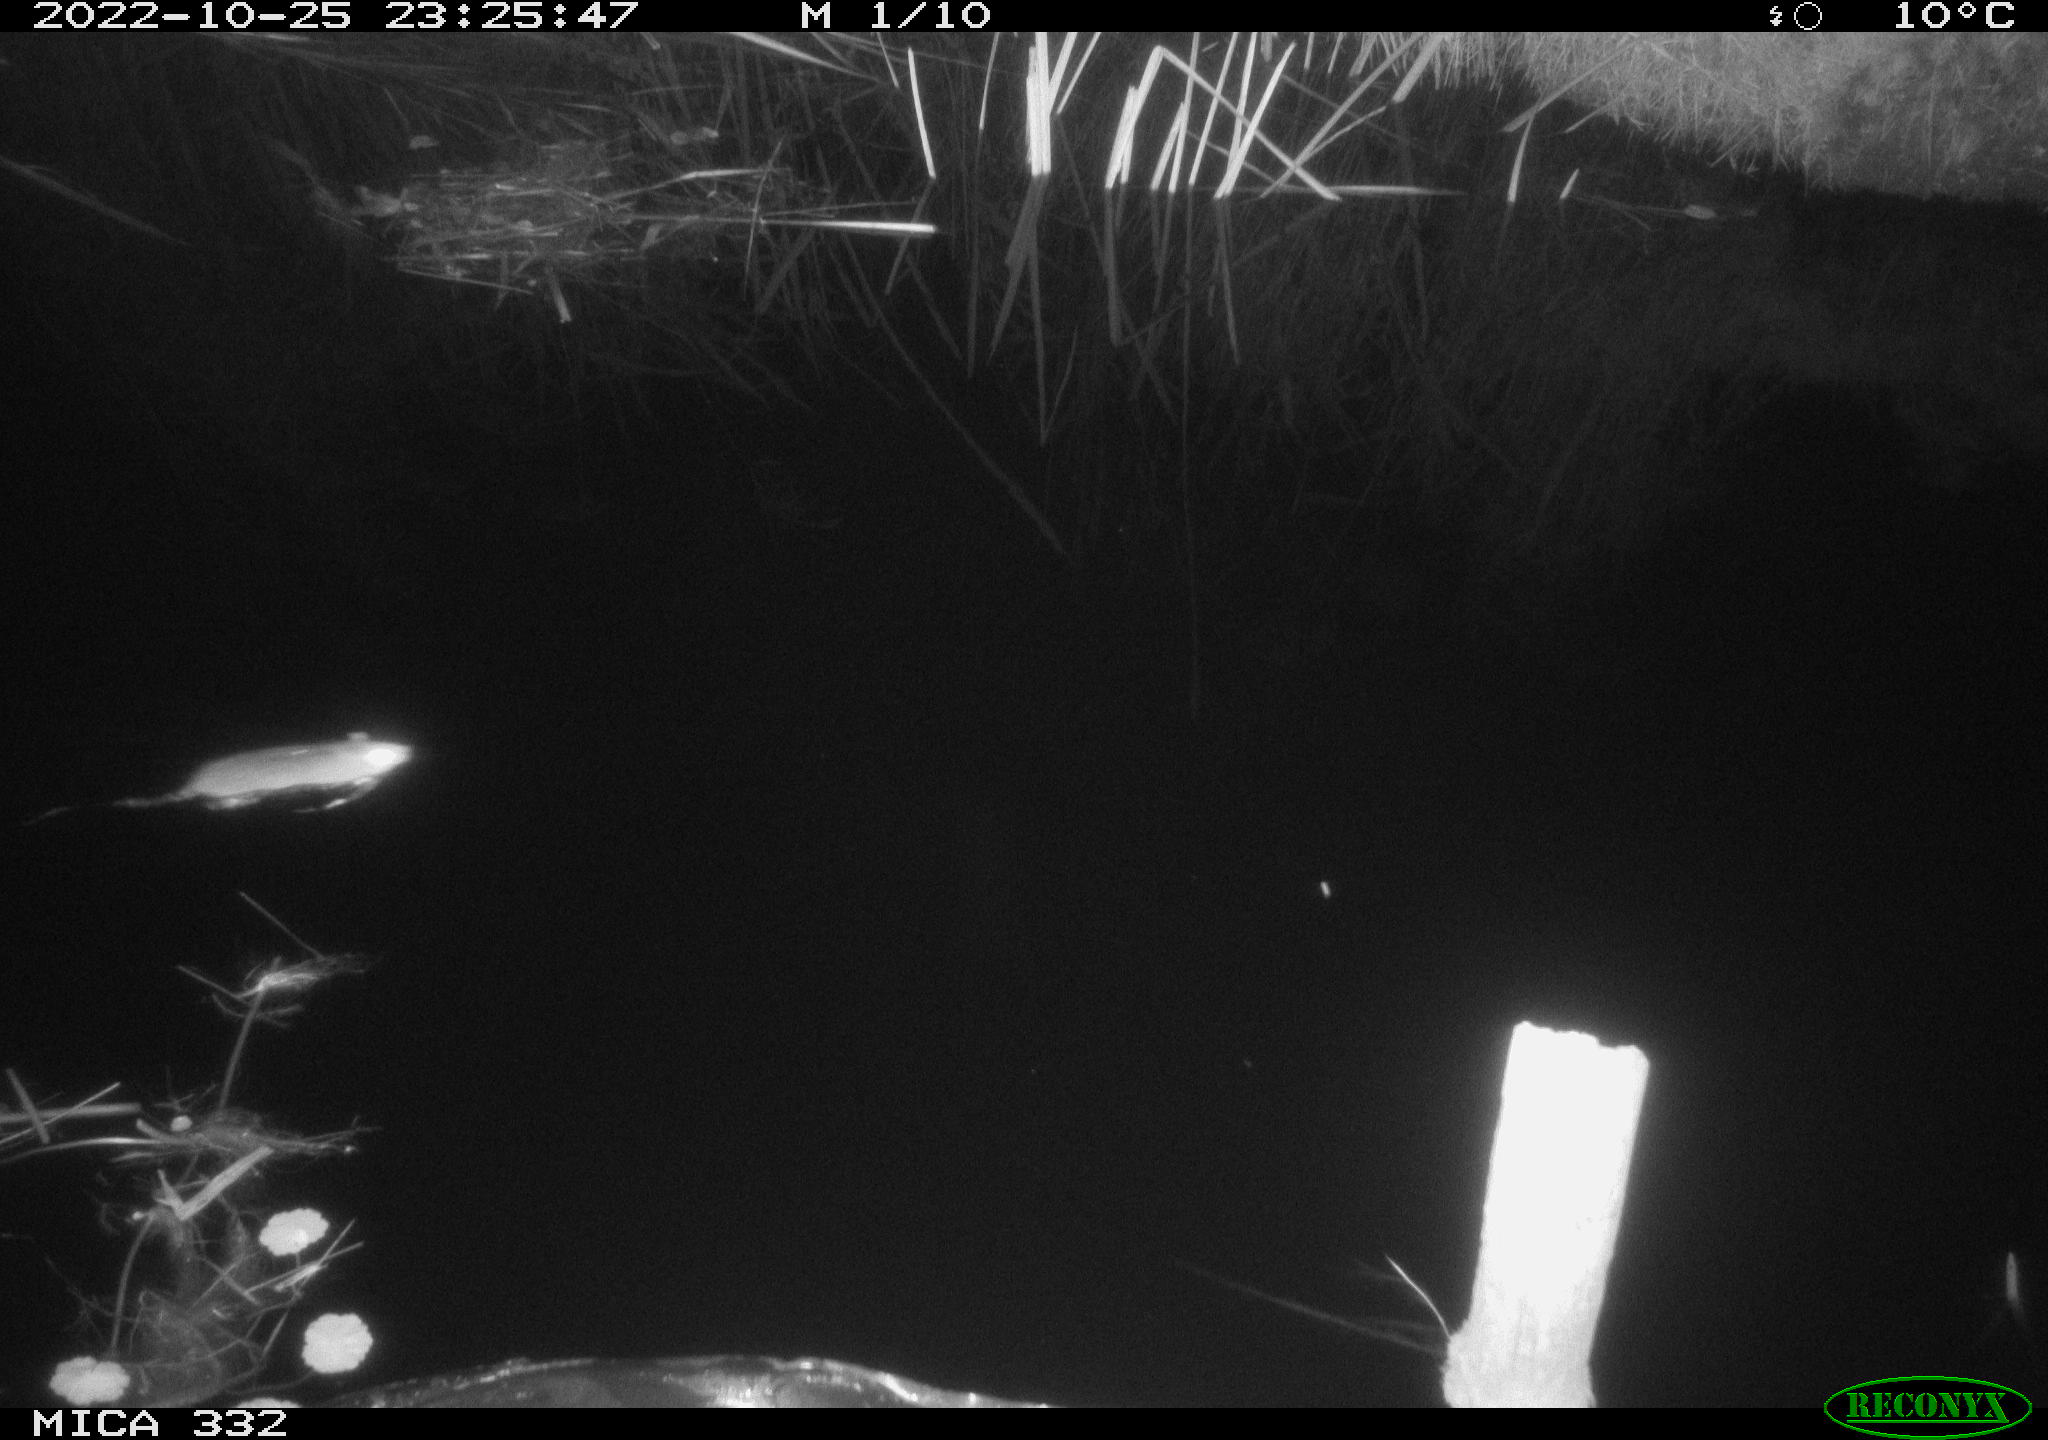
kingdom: Animalia
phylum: Chordata
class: Mammalia
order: Rodentia
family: Muridae
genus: Rattus
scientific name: Rattus norvegicus
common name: Brown rat
